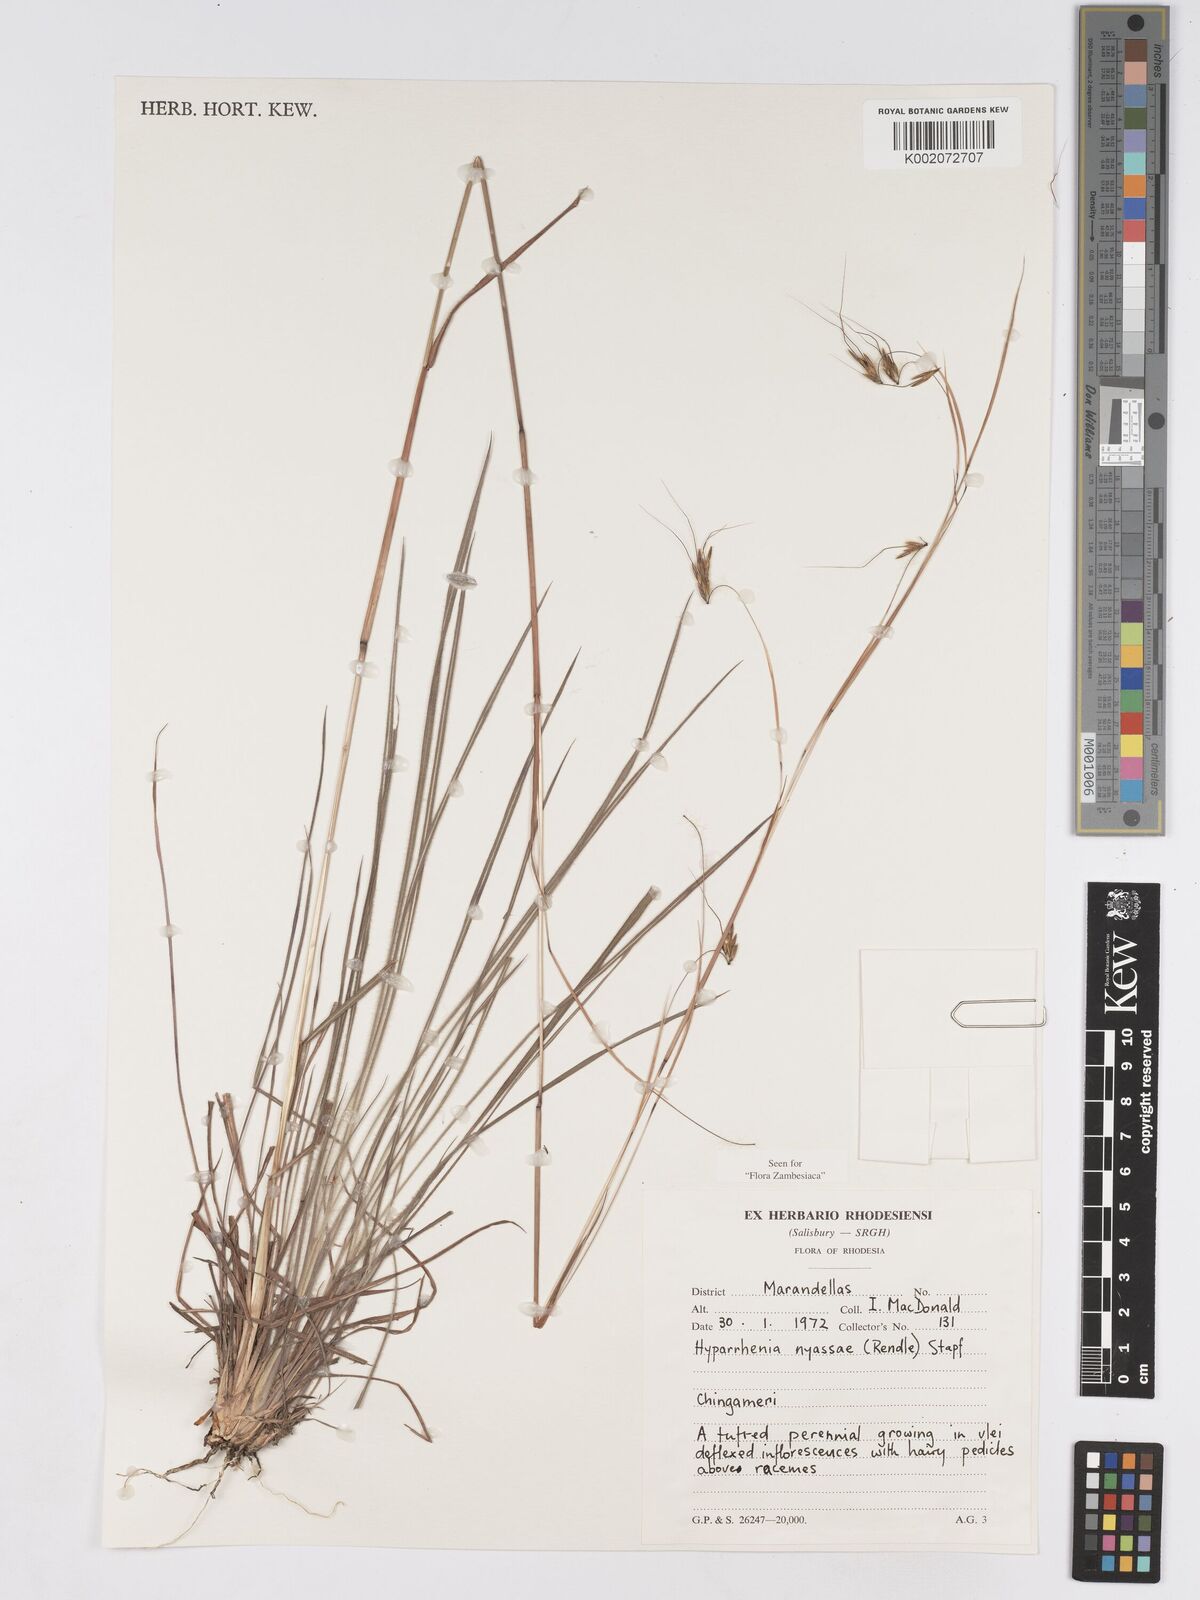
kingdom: Plantae
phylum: Tracheophyta
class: Liliopsida
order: Poales
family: Poaceae
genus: Hyparrhenia
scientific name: Hyparrhenia nyassae
